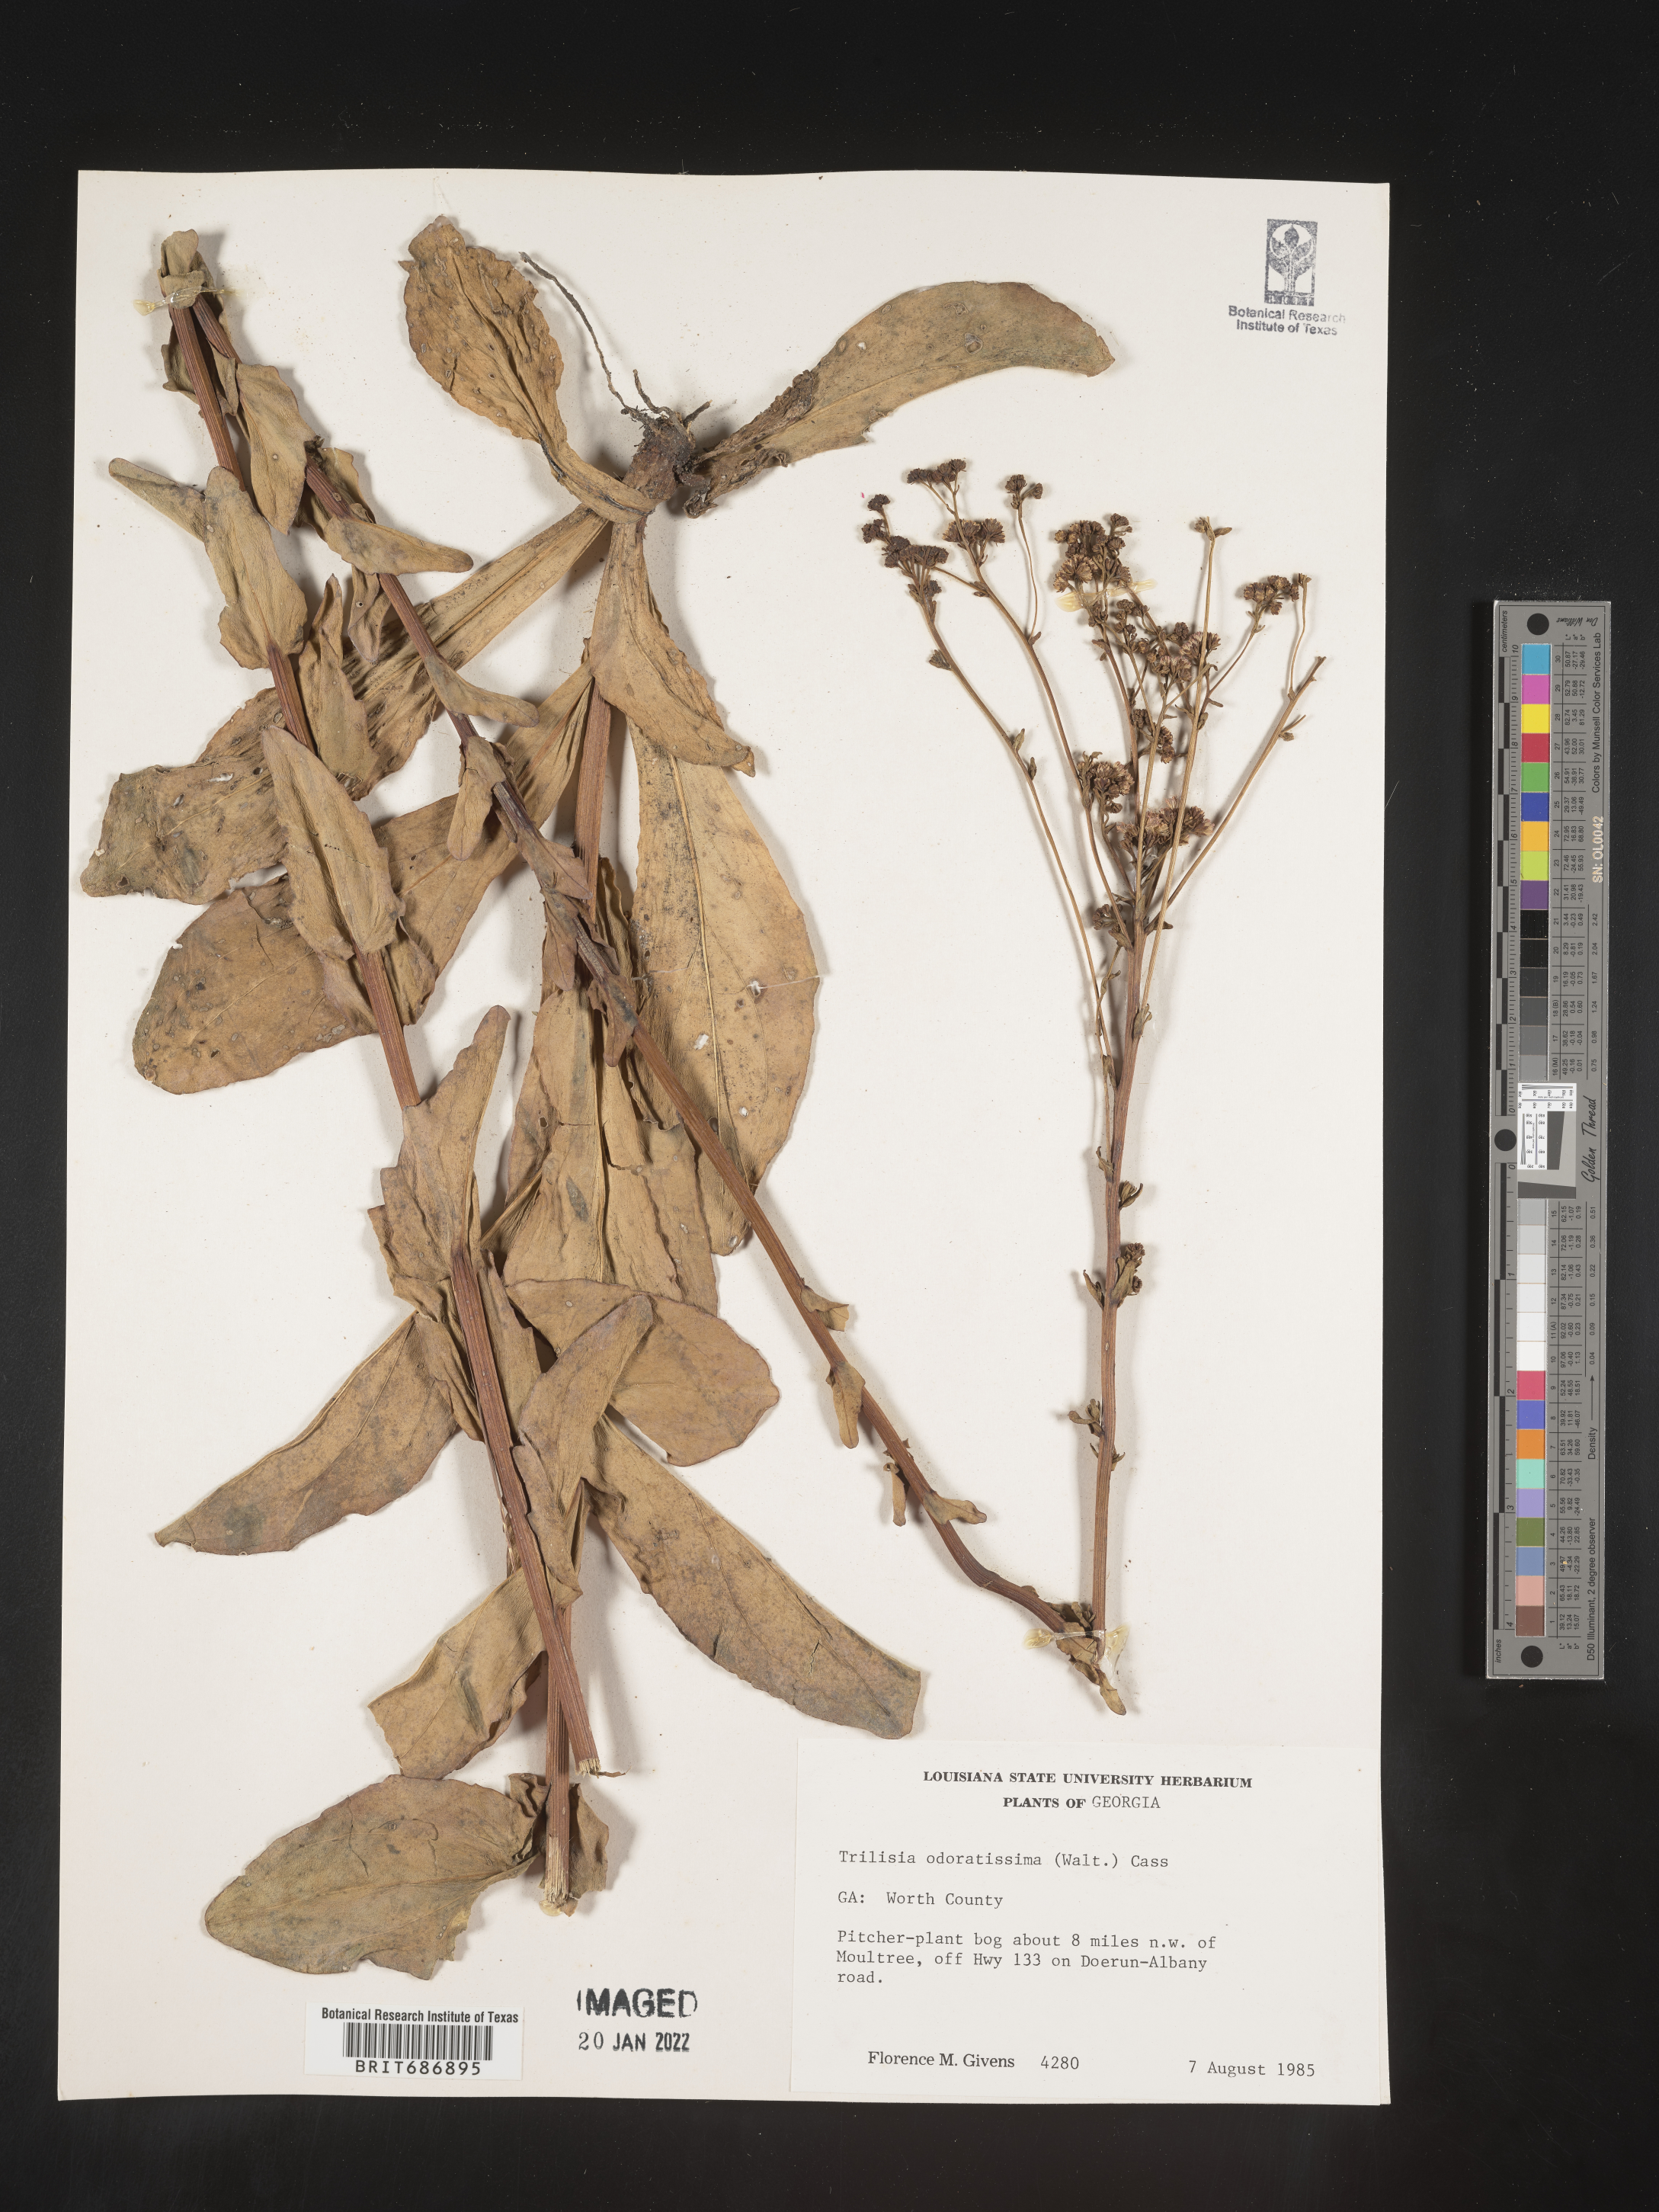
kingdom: Plantae
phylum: Tracheophyta
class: Magnoliopsida
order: Asterales
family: Asteraceae
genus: Carphephorus
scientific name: Carphephorus odoratissimus
